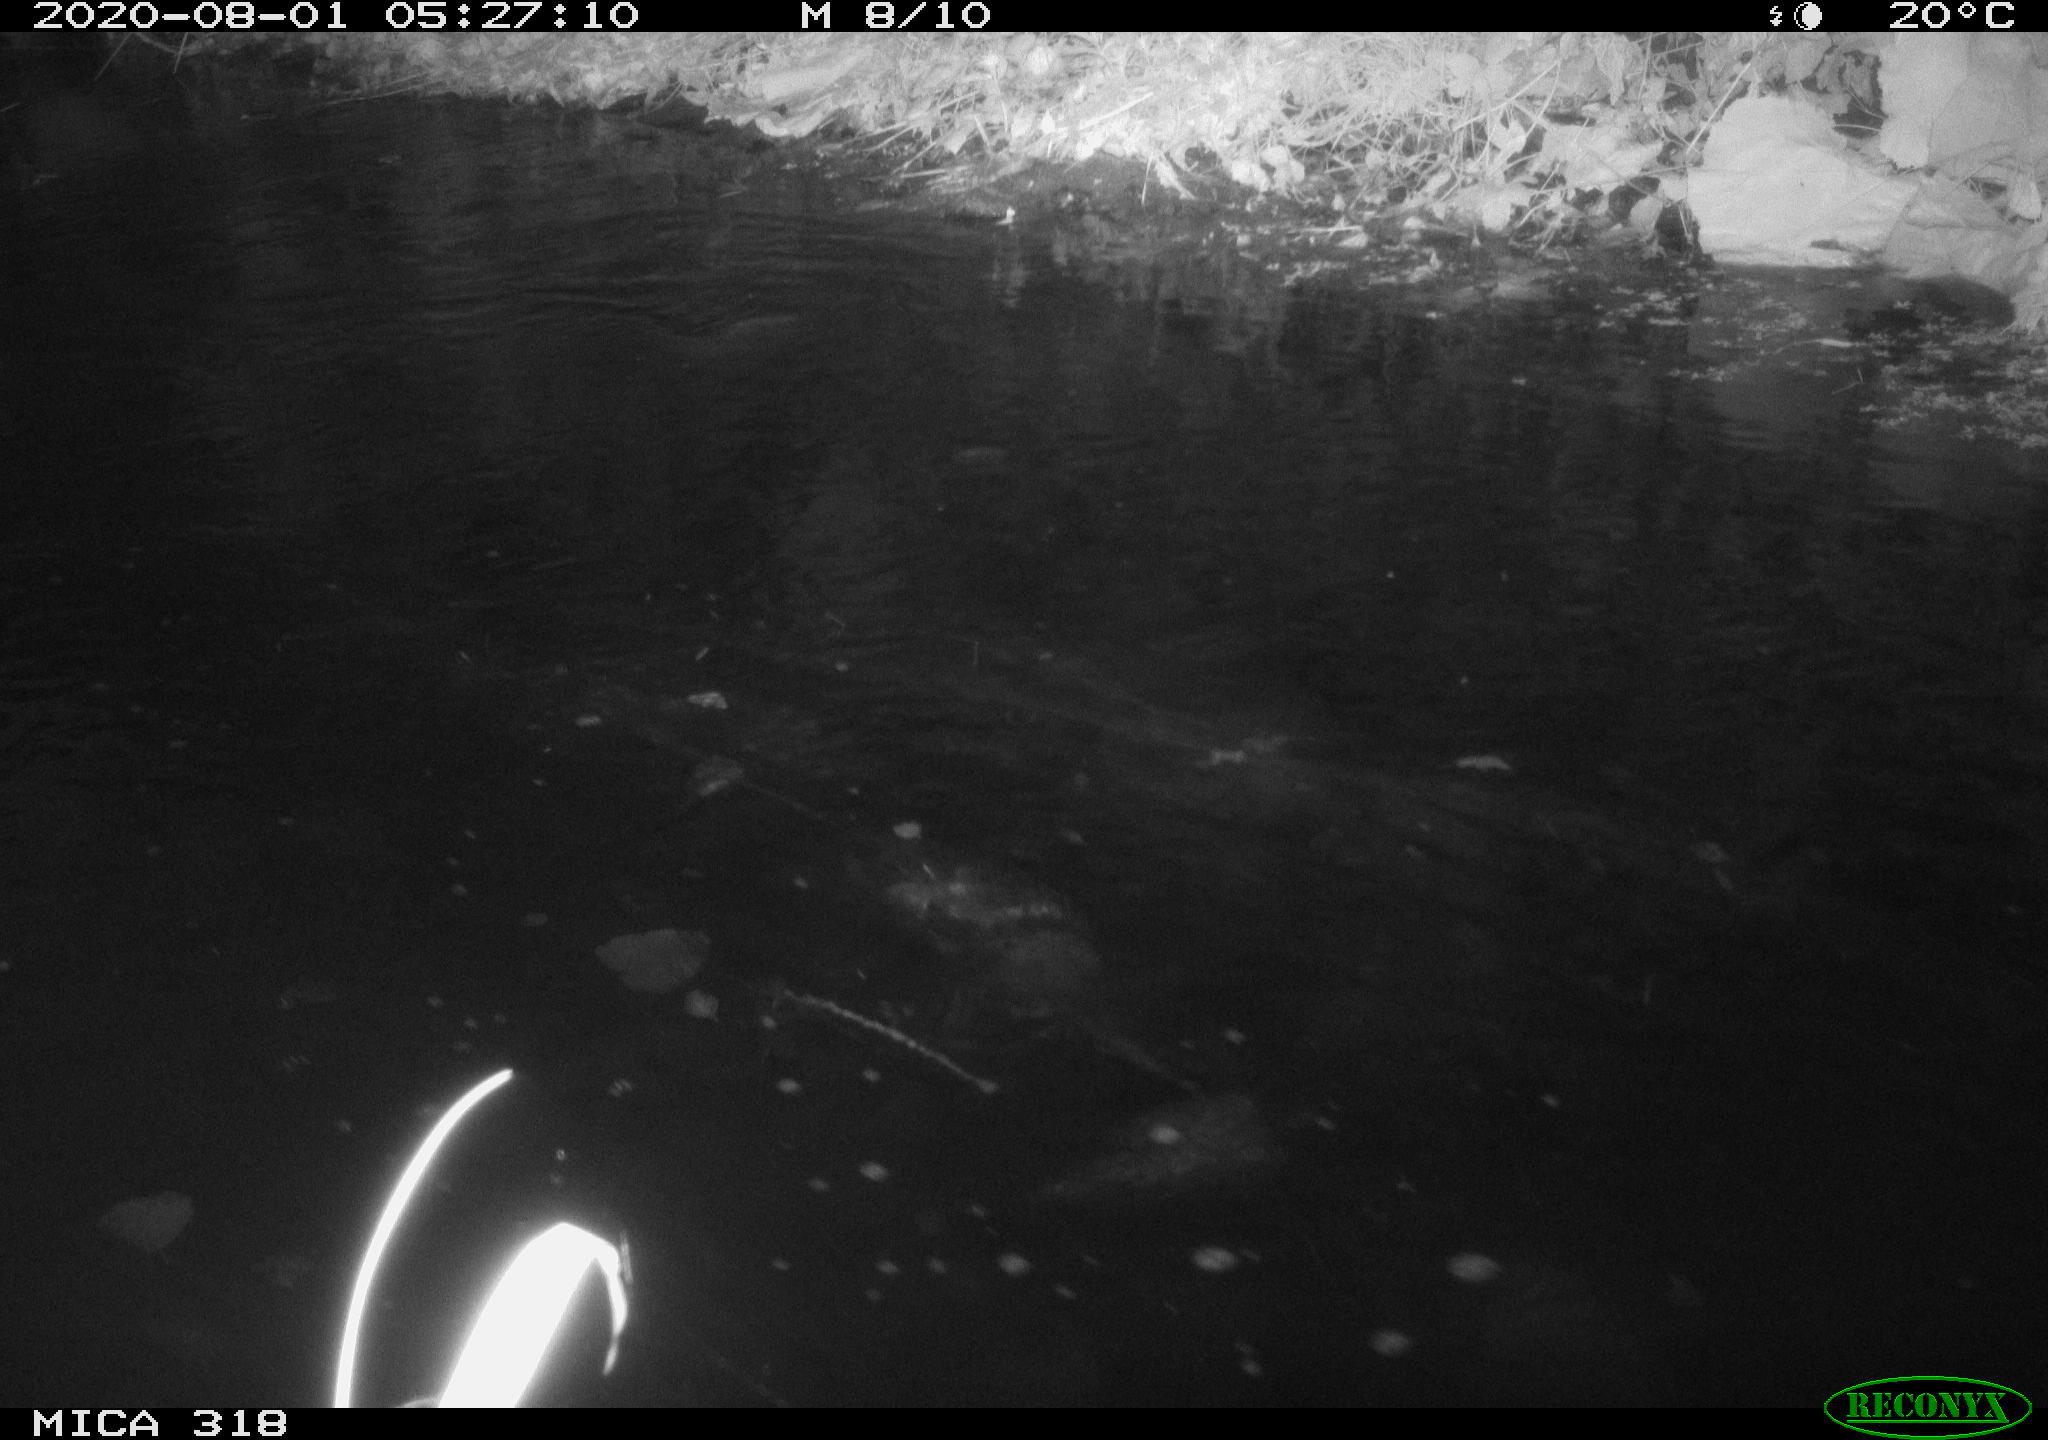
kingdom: Animalia
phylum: Chordata
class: Aves
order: Gruiformes
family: Rallidae
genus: Gallinula
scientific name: Gallinula chloropus
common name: Common moorhen
